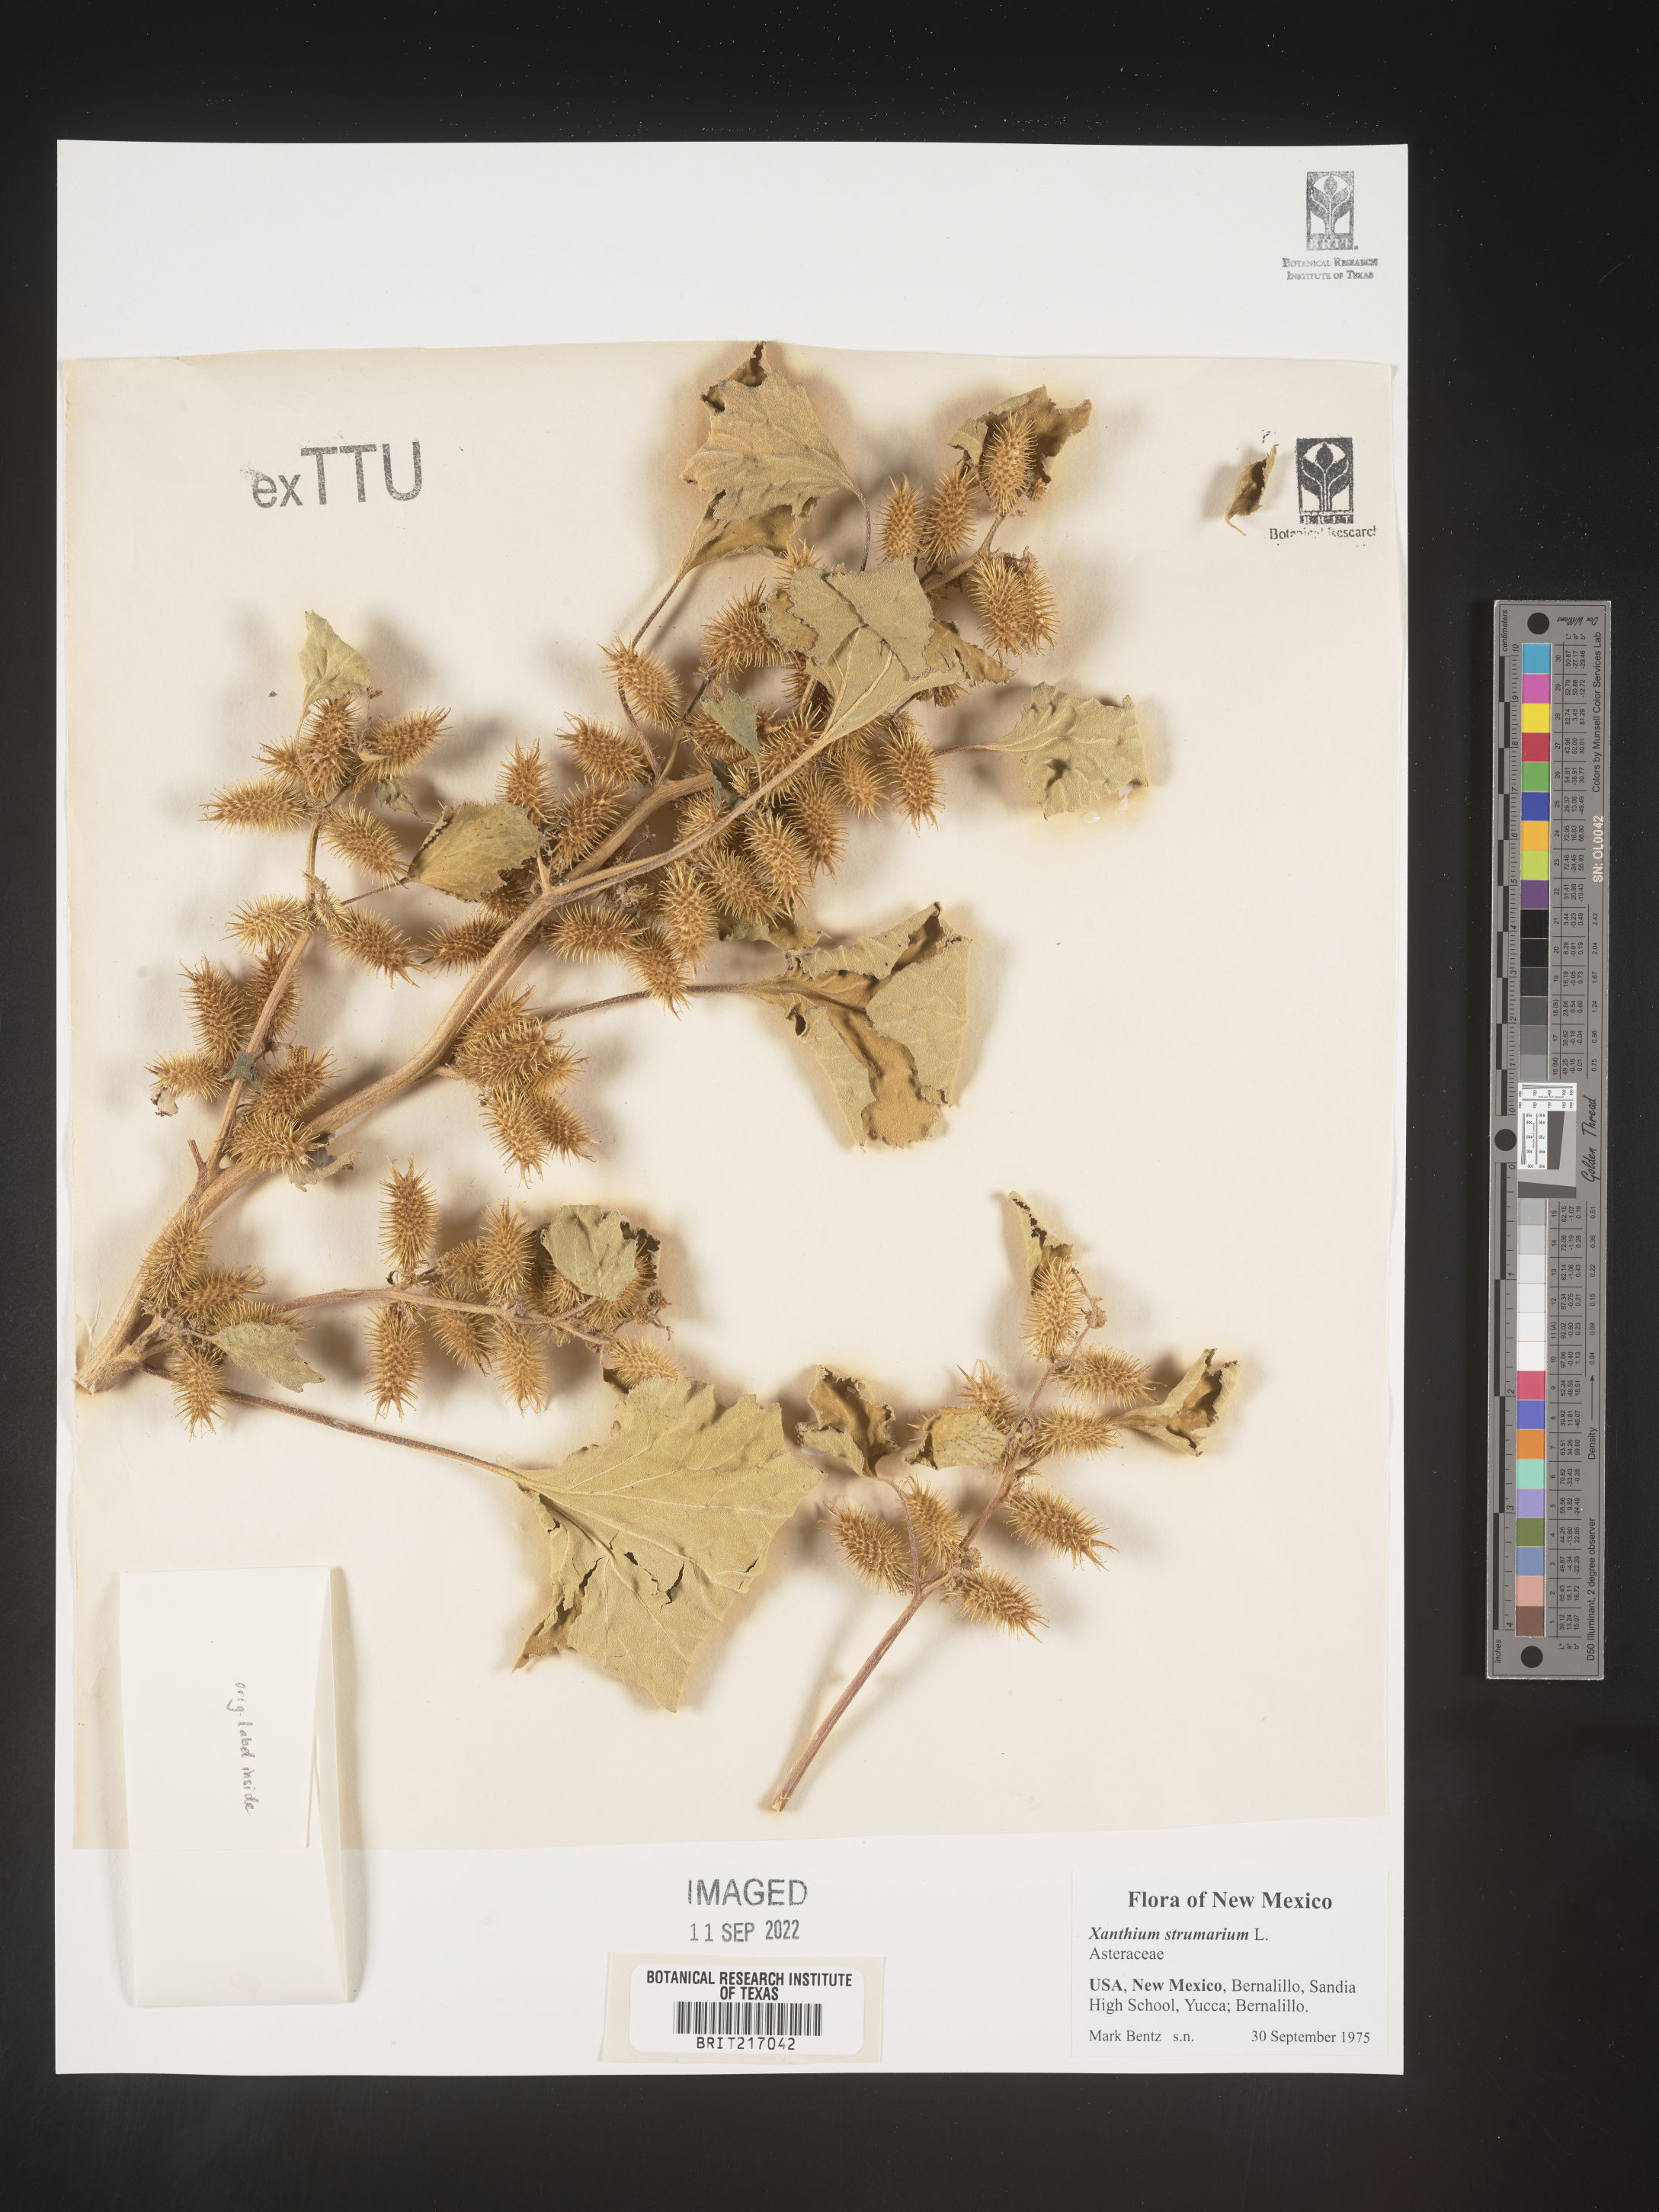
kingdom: Plantae
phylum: Tracheophyta
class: Magnoliopsida
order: Asterales
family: Asteraceae
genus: Xanthium
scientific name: Xanthium strumarium
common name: Rough cocklebur
